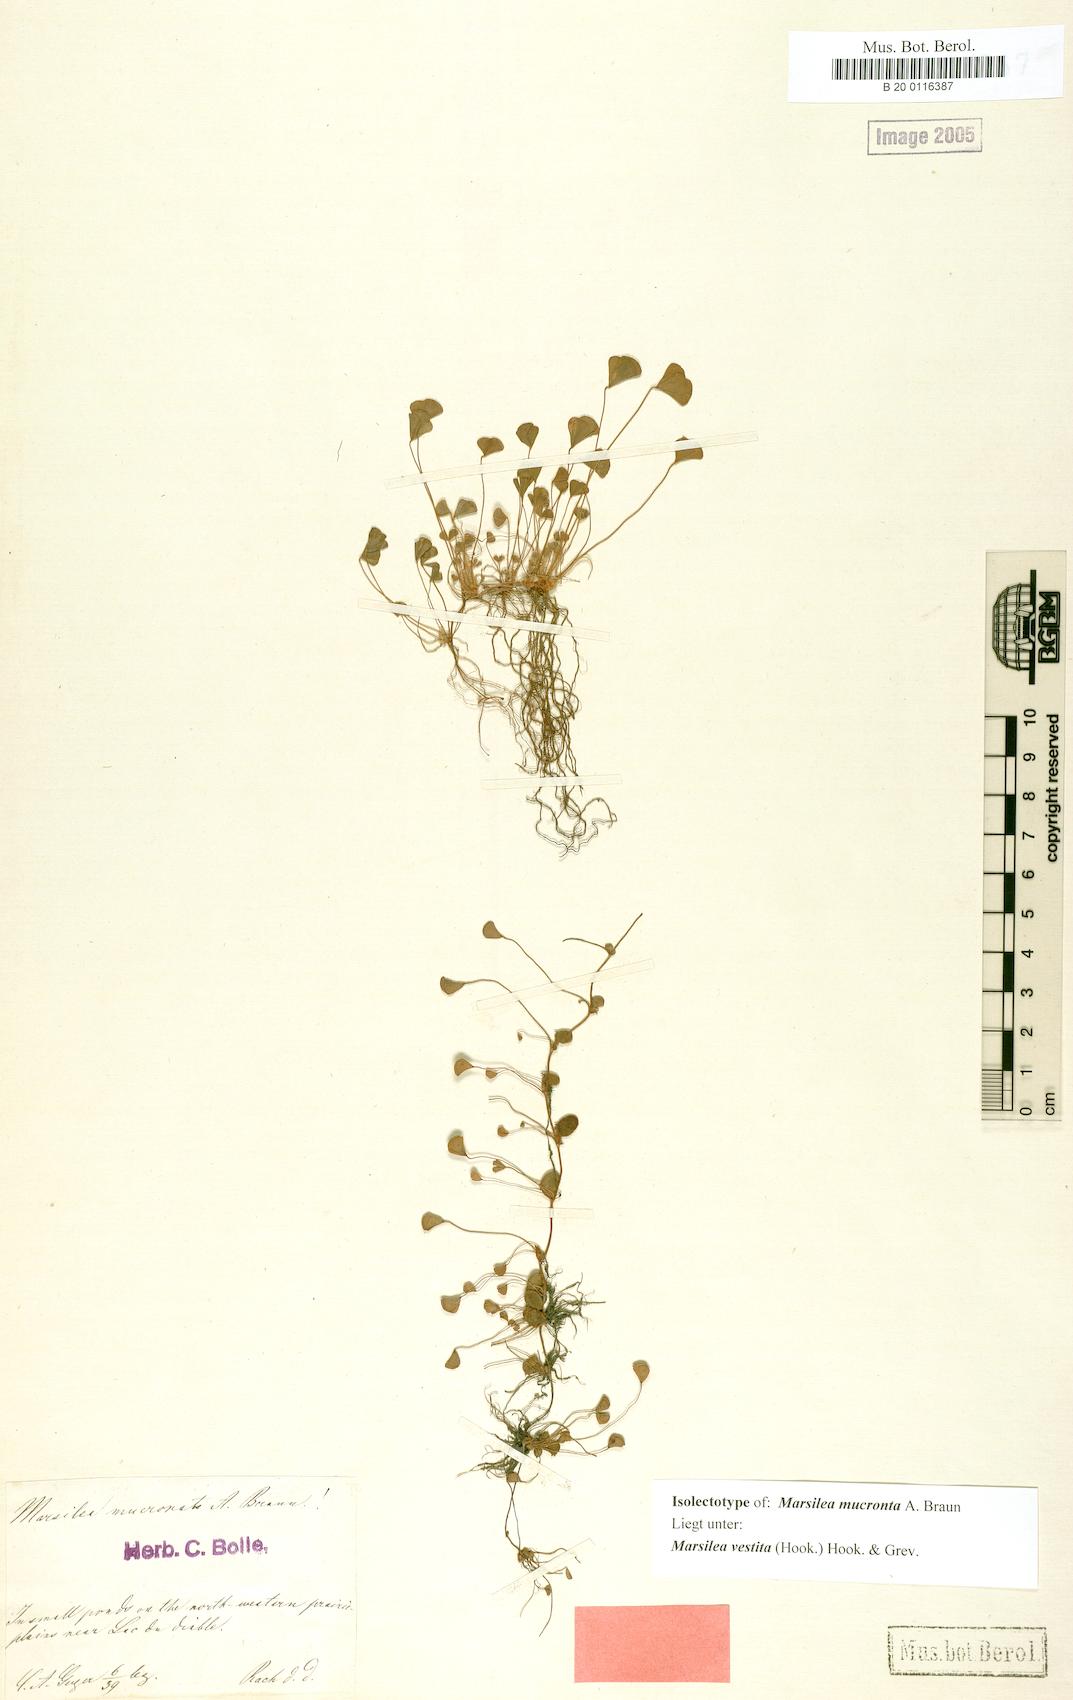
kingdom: Plantae
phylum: Tracheophyta
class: Polypodiopsida
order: Salviniales
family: Marsileaceae
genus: Marsilea
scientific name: Marsilea vestita
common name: Hooked-pepperwort
